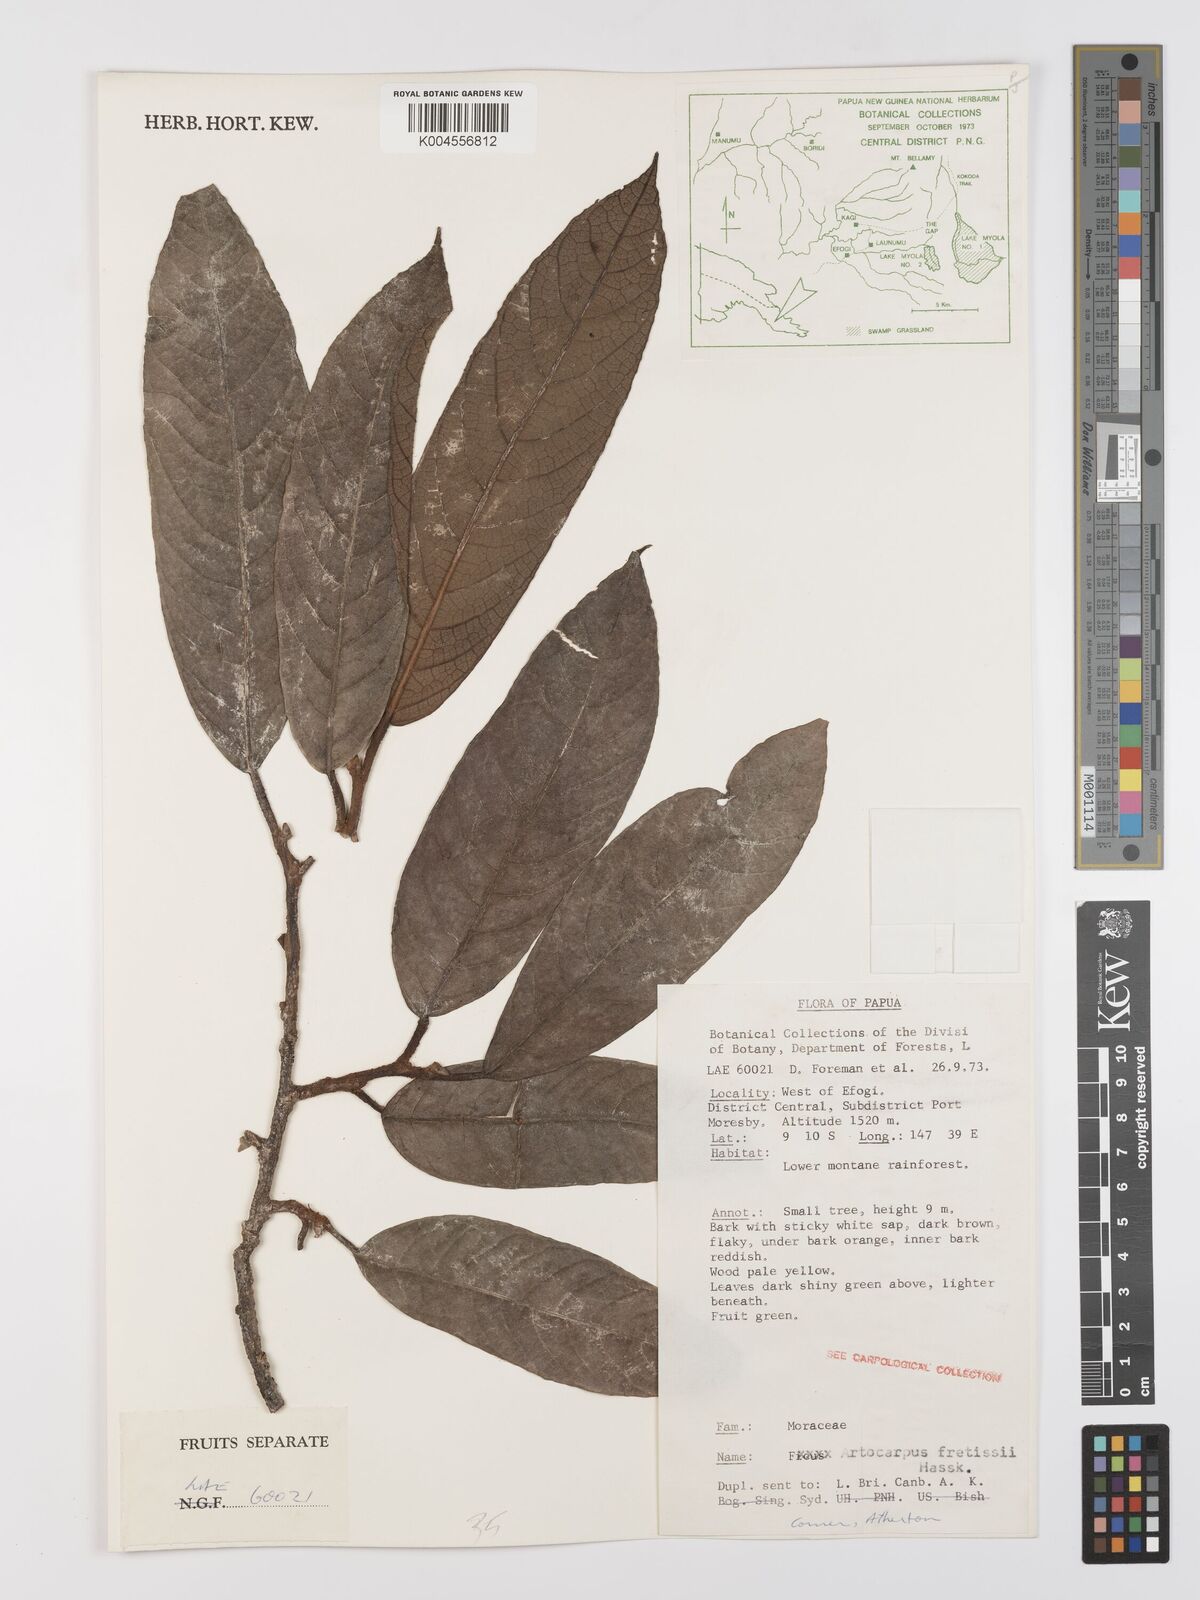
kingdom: Plantae
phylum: Tracheophyta
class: Magnoliopsida
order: Rosales
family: Moraceae
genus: Artocarpus
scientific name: Artocarpus lacucha
